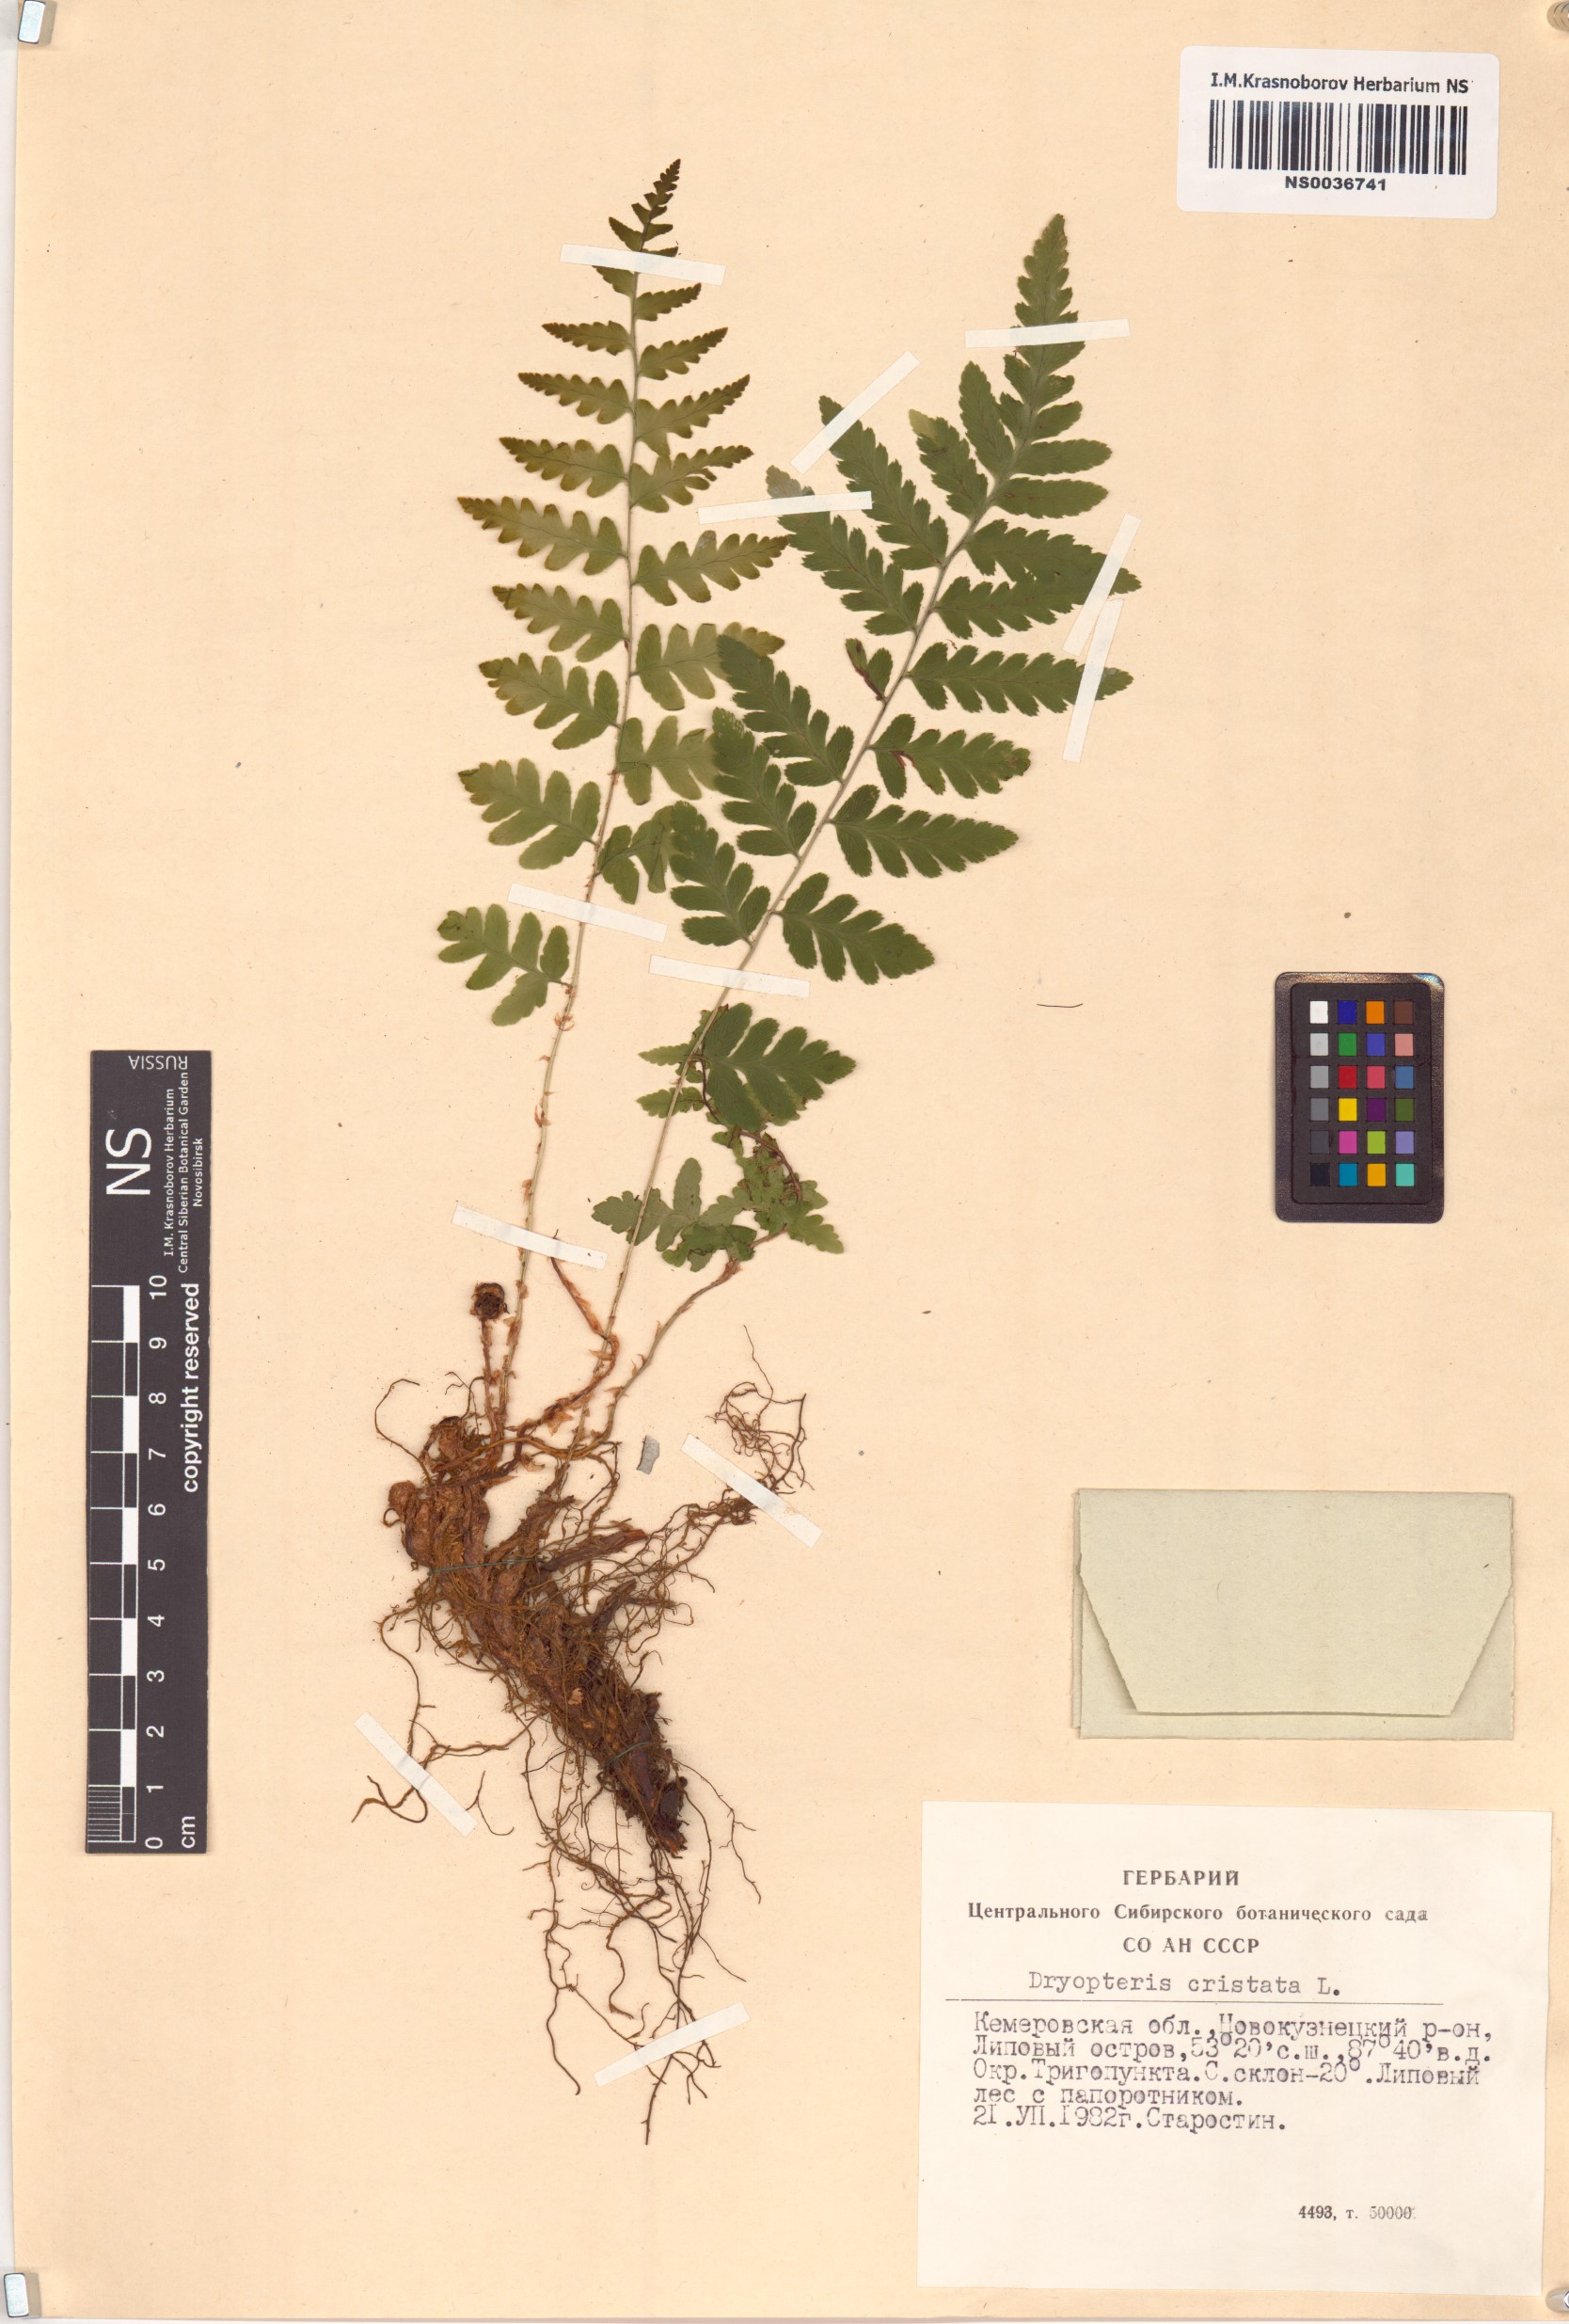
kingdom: Plantae
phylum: Tracheophyta
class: Polypodiopsida
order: Polypodiales
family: Dryopteridaceae
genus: Dryopteris
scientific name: Dryopteris cristata
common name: Crested wood fern
